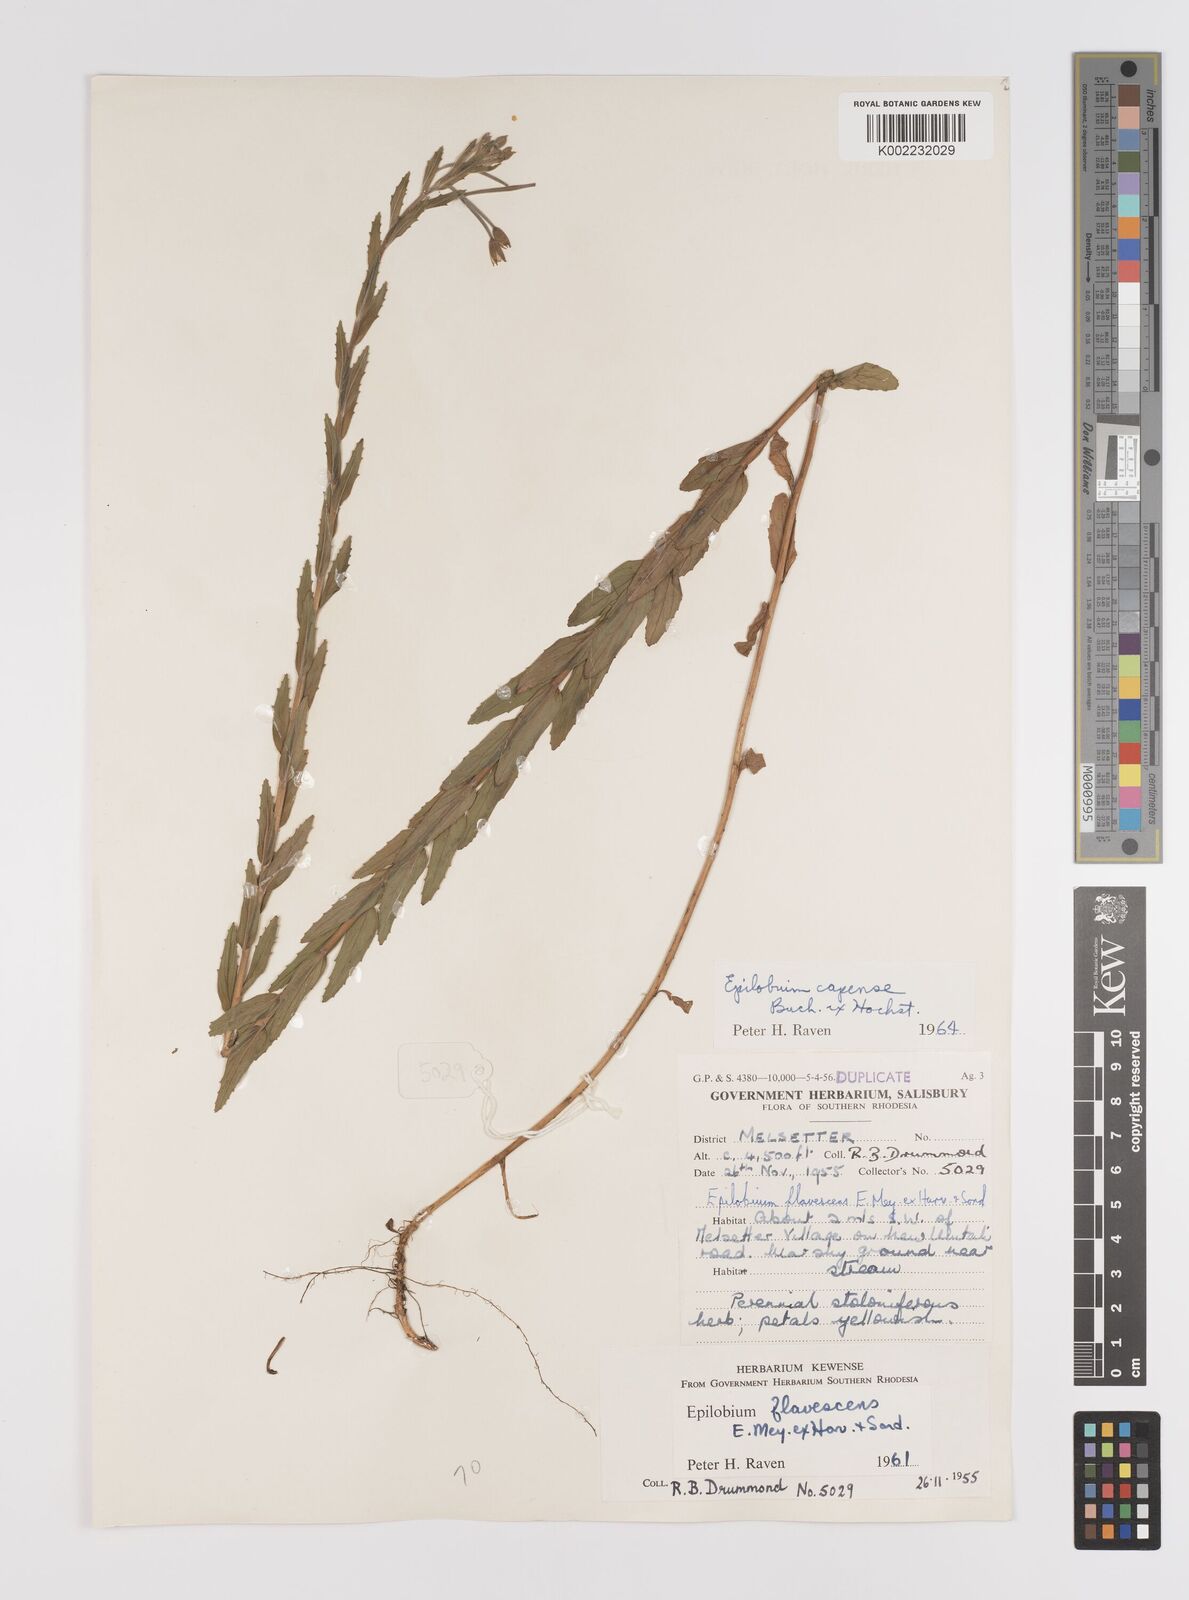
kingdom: Plantae
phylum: Tracheophyta
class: Magnoliopsida
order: Myrtales
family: Onagraceae
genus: Epilobium
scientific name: Epilobium capense
